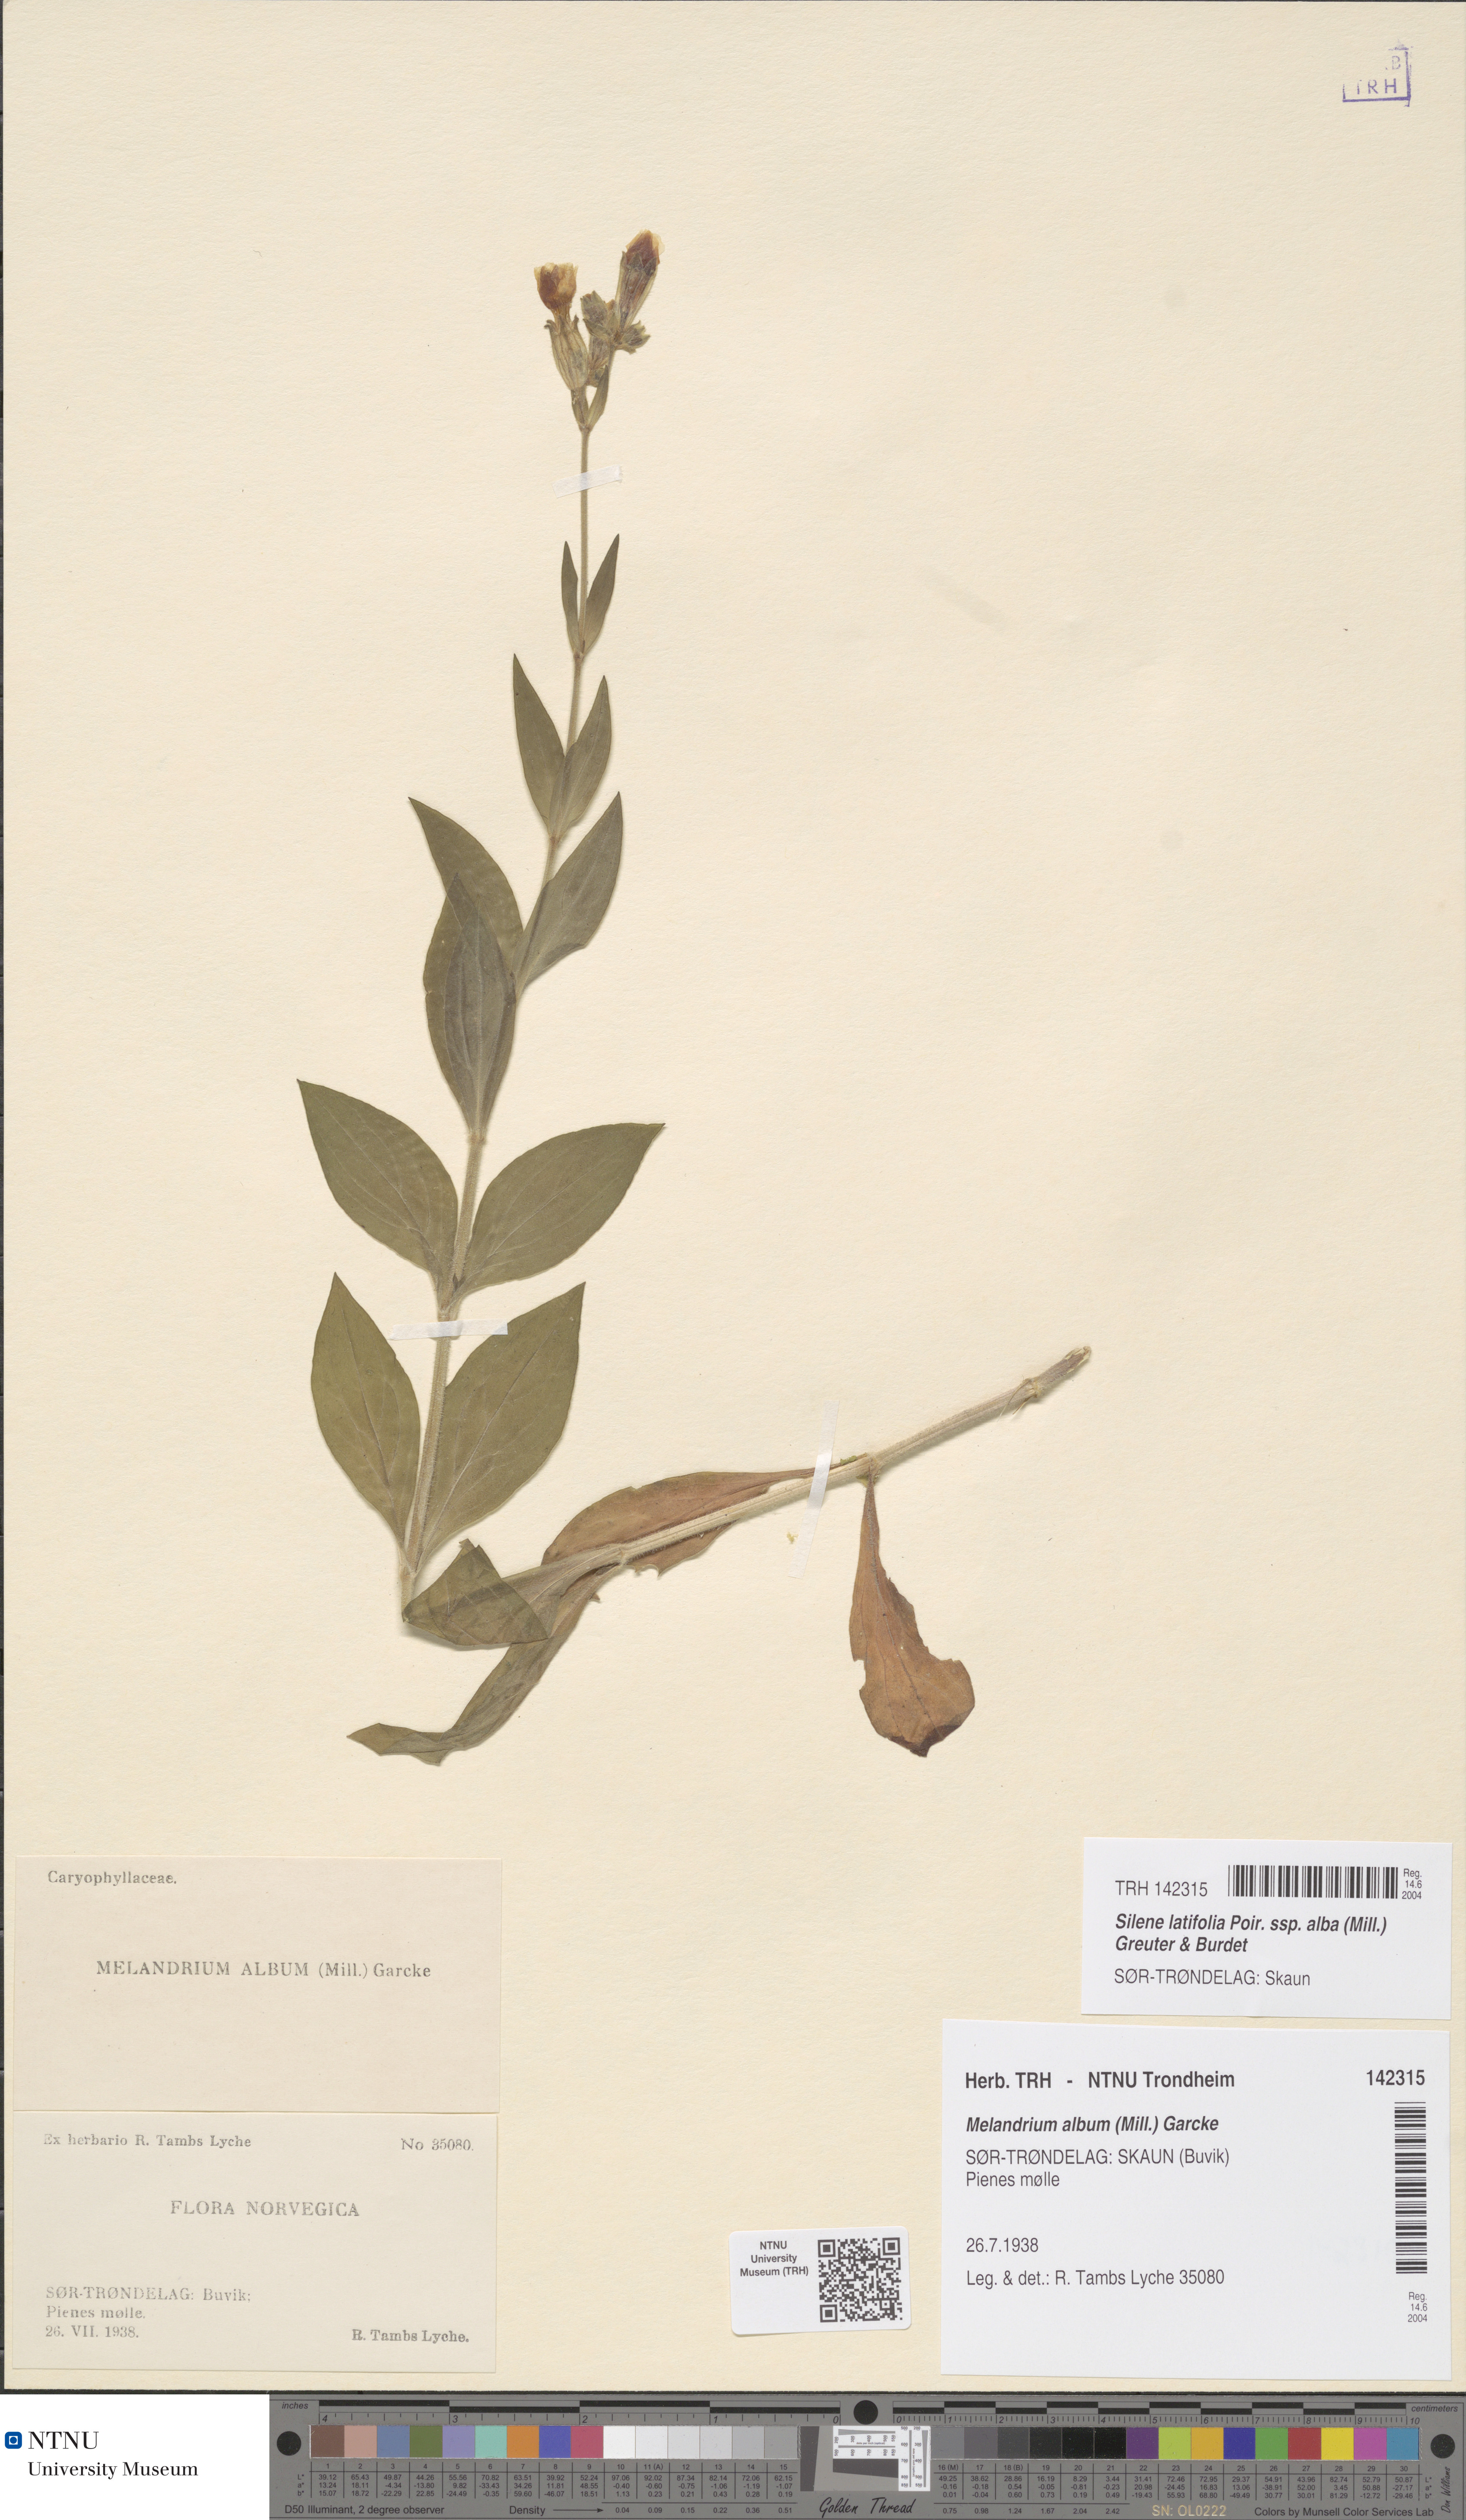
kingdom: Plantae
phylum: Tracheophyta
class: Magnoliopsida
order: Caryophyllales
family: Caryophyllaceae
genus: Silene
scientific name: Silene latifolia
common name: White campion
